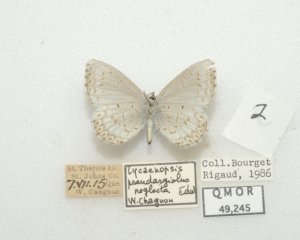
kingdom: Animalia
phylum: Arthropoda
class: Insecta
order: Lepidoptera
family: Lycaenidae
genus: Cyaniris
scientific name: Cyaniris neglecta
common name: Summer Azure
